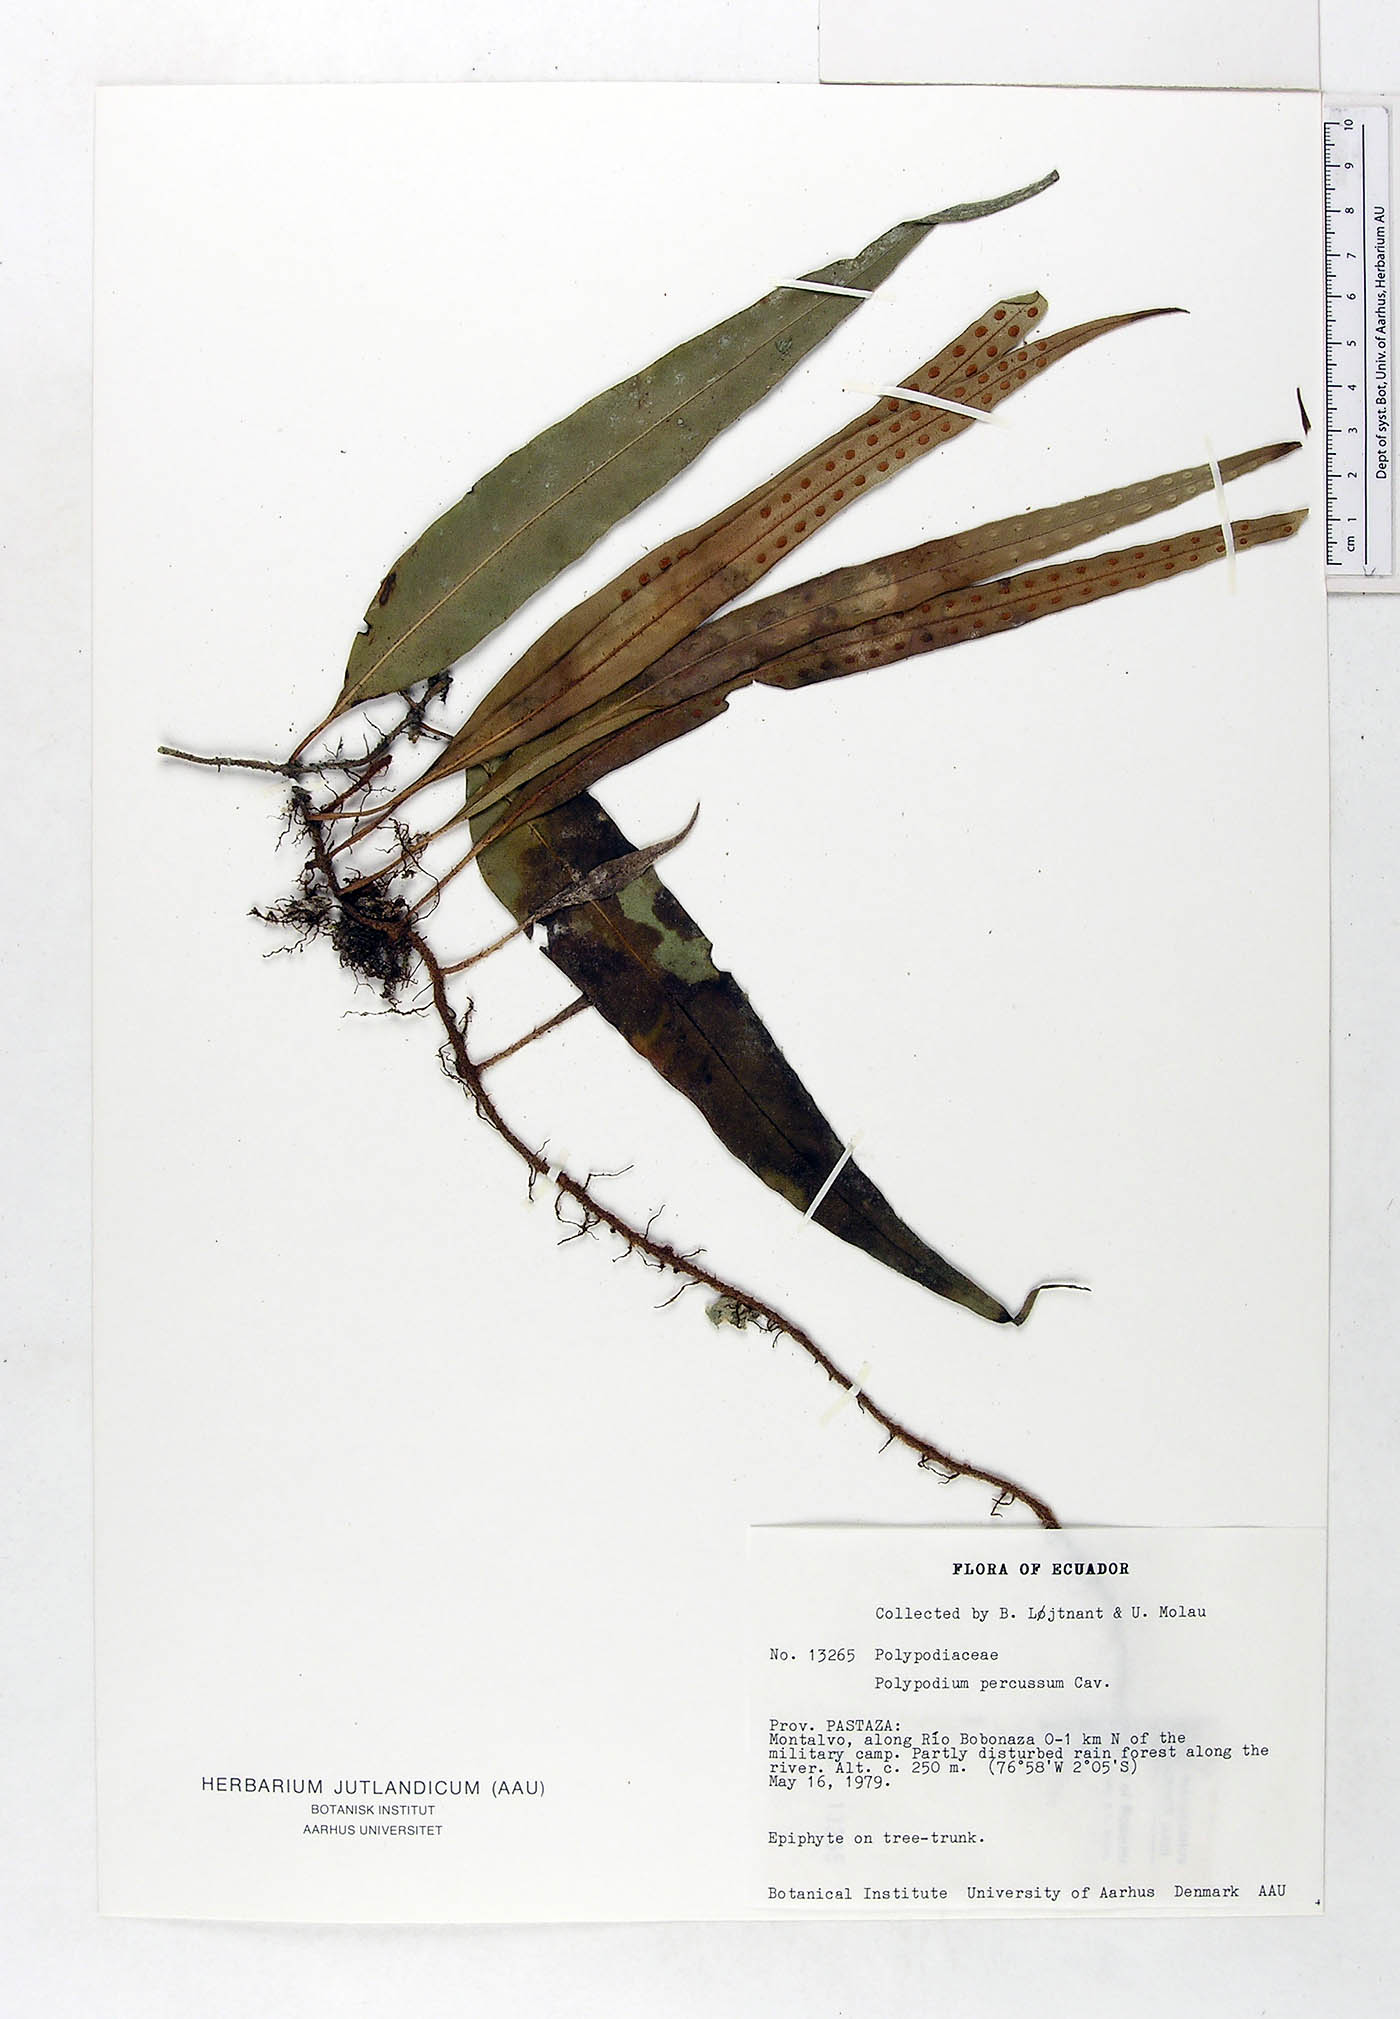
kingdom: Plantae
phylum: Tracheophyta
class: Polypodiopsida
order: Polypodiales
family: Polypodiaceae
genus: Microgramma
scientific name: Microgramma percussa
